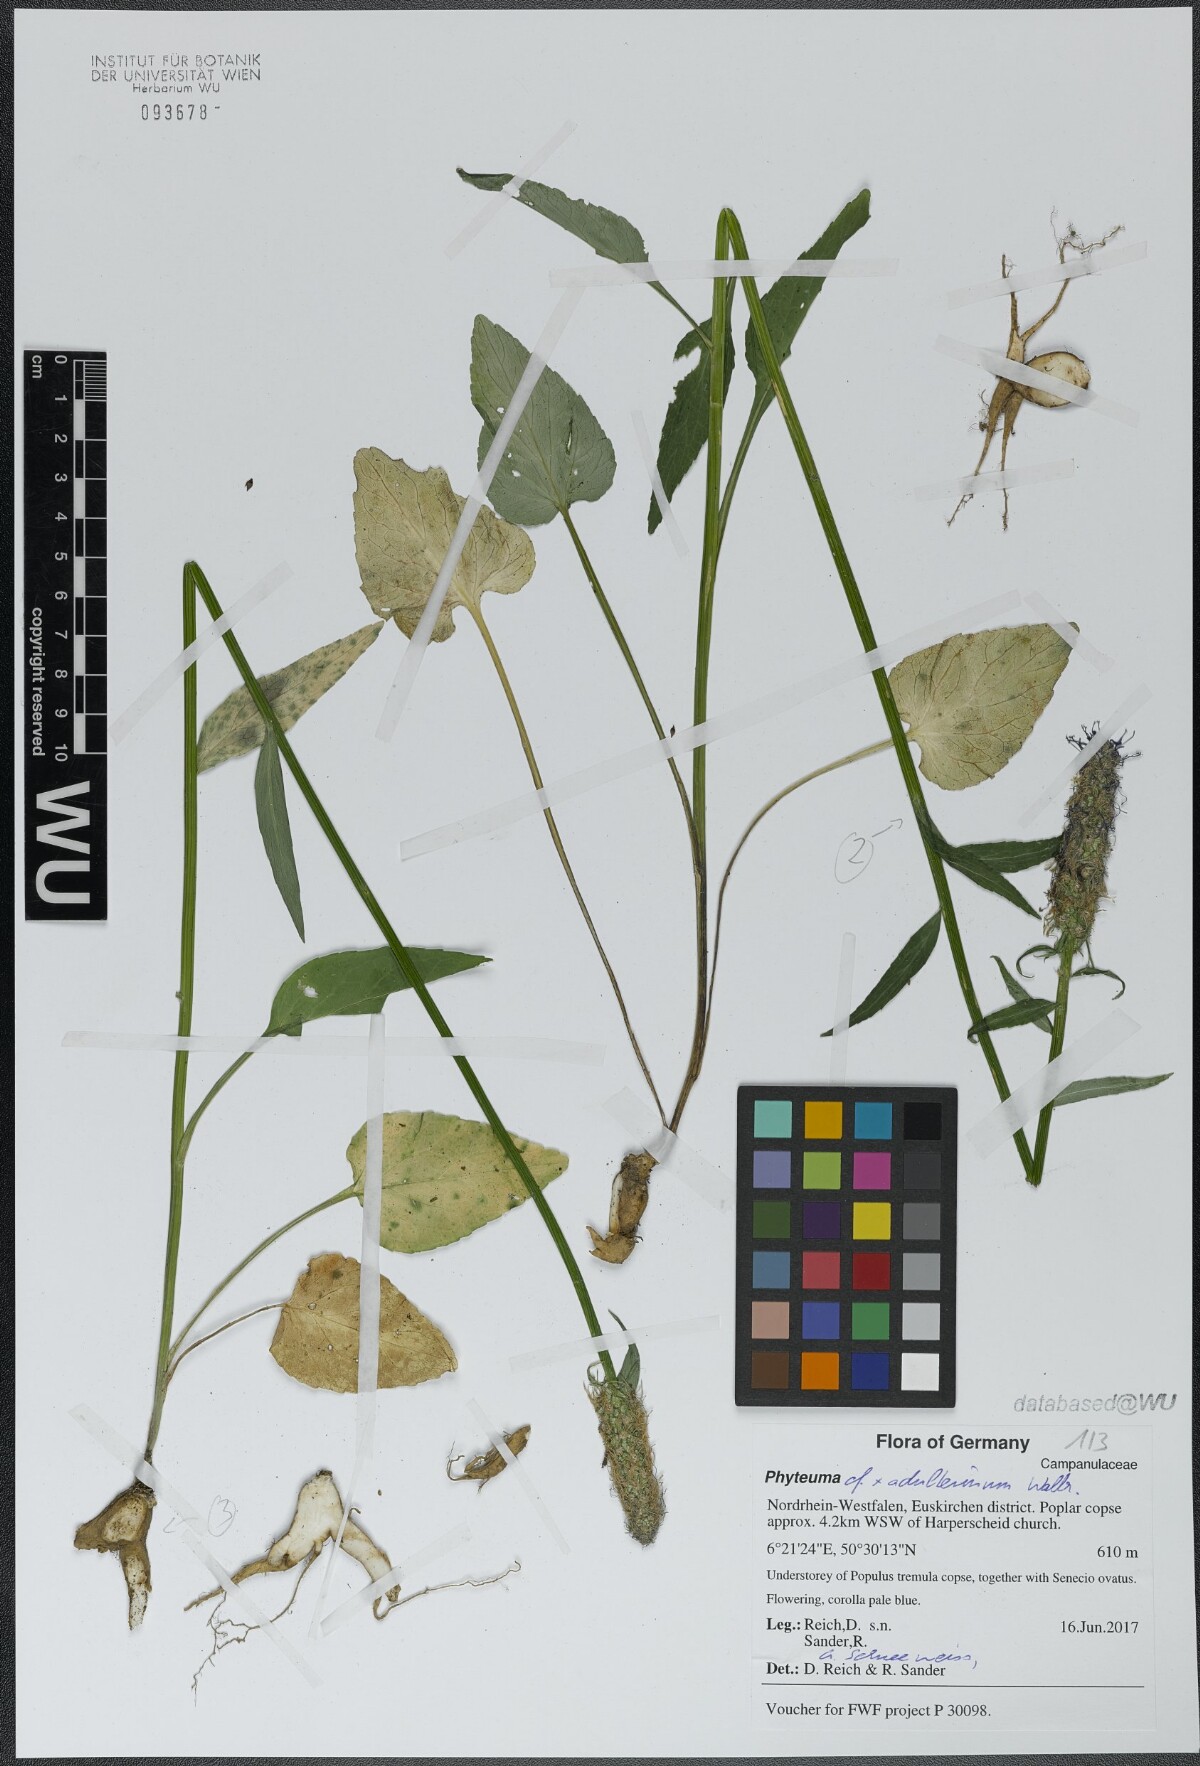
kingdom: Plantae
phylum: Tracheophyta
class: Magnoliopsida
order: Asterales
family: Campanulaceae
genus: Phyteuma
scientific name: Phyteuma
